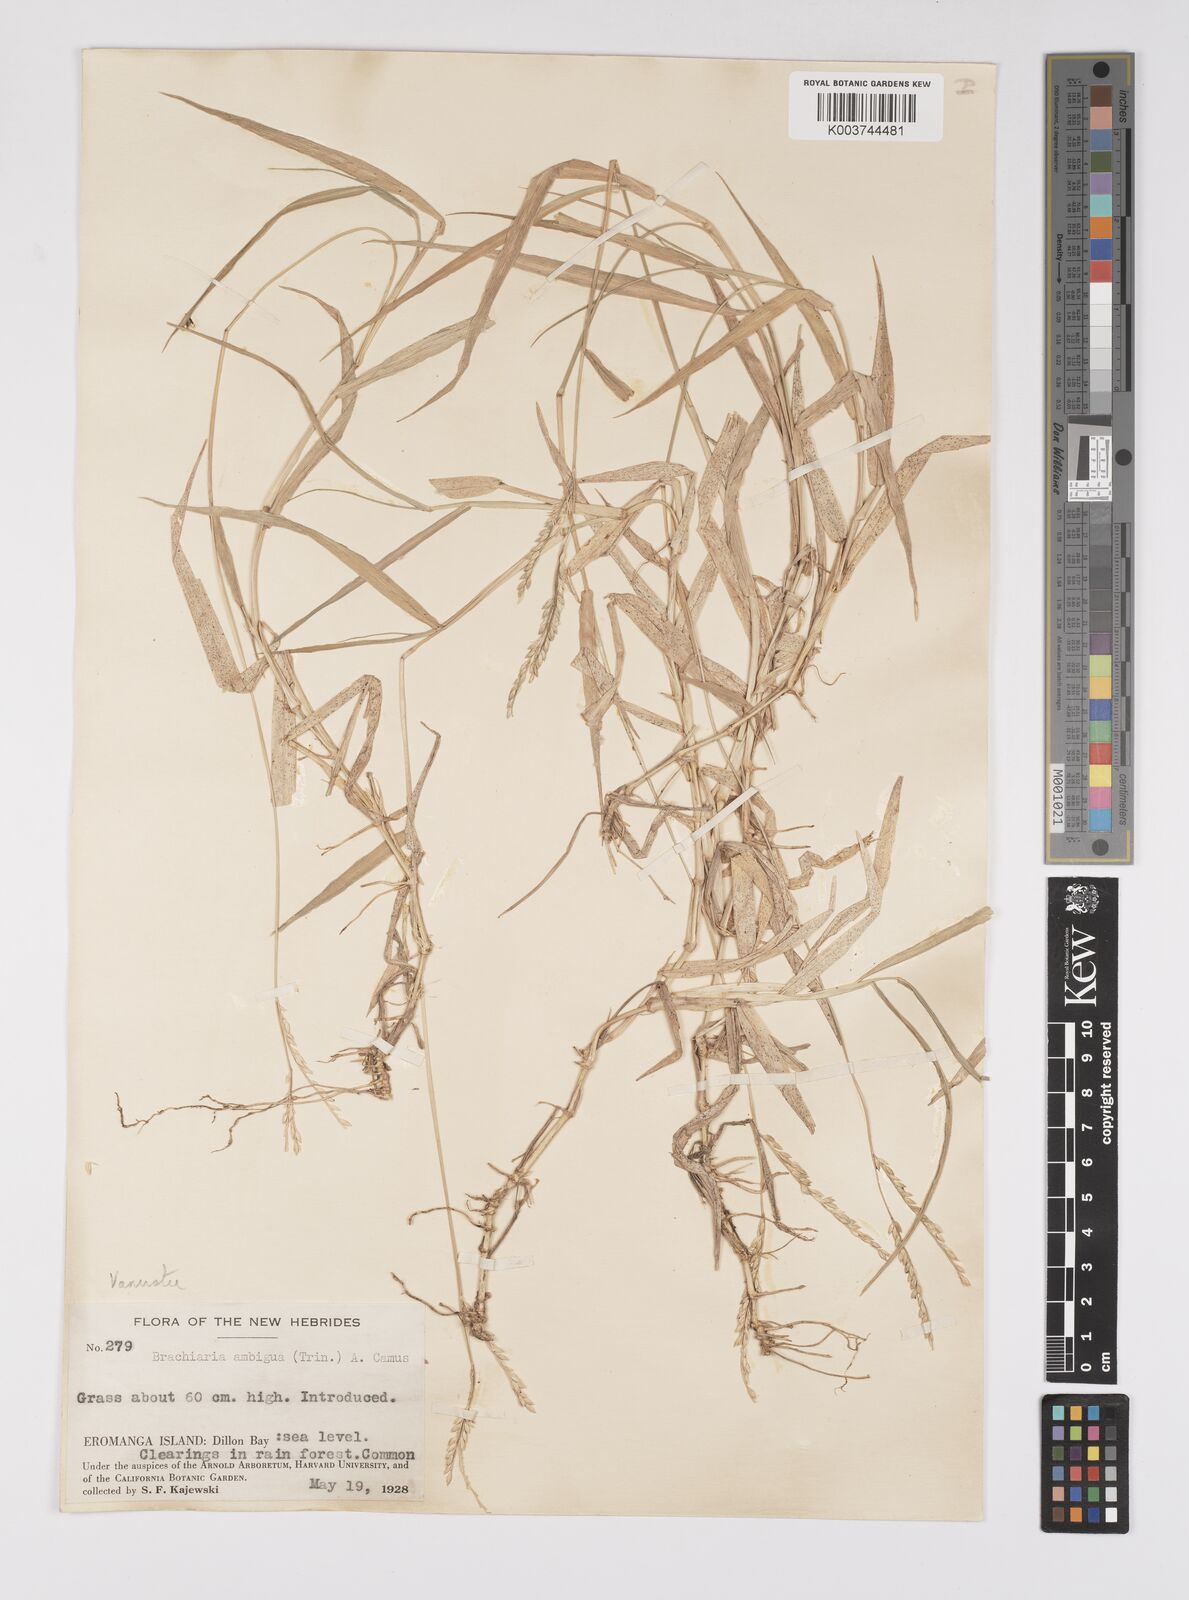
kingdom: Plantae
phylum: Tracheophyta
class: Liliopsida
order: Poales
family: Poaceae
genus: Urochloa
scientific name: Urochloa glumaris
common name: Thurston grass
